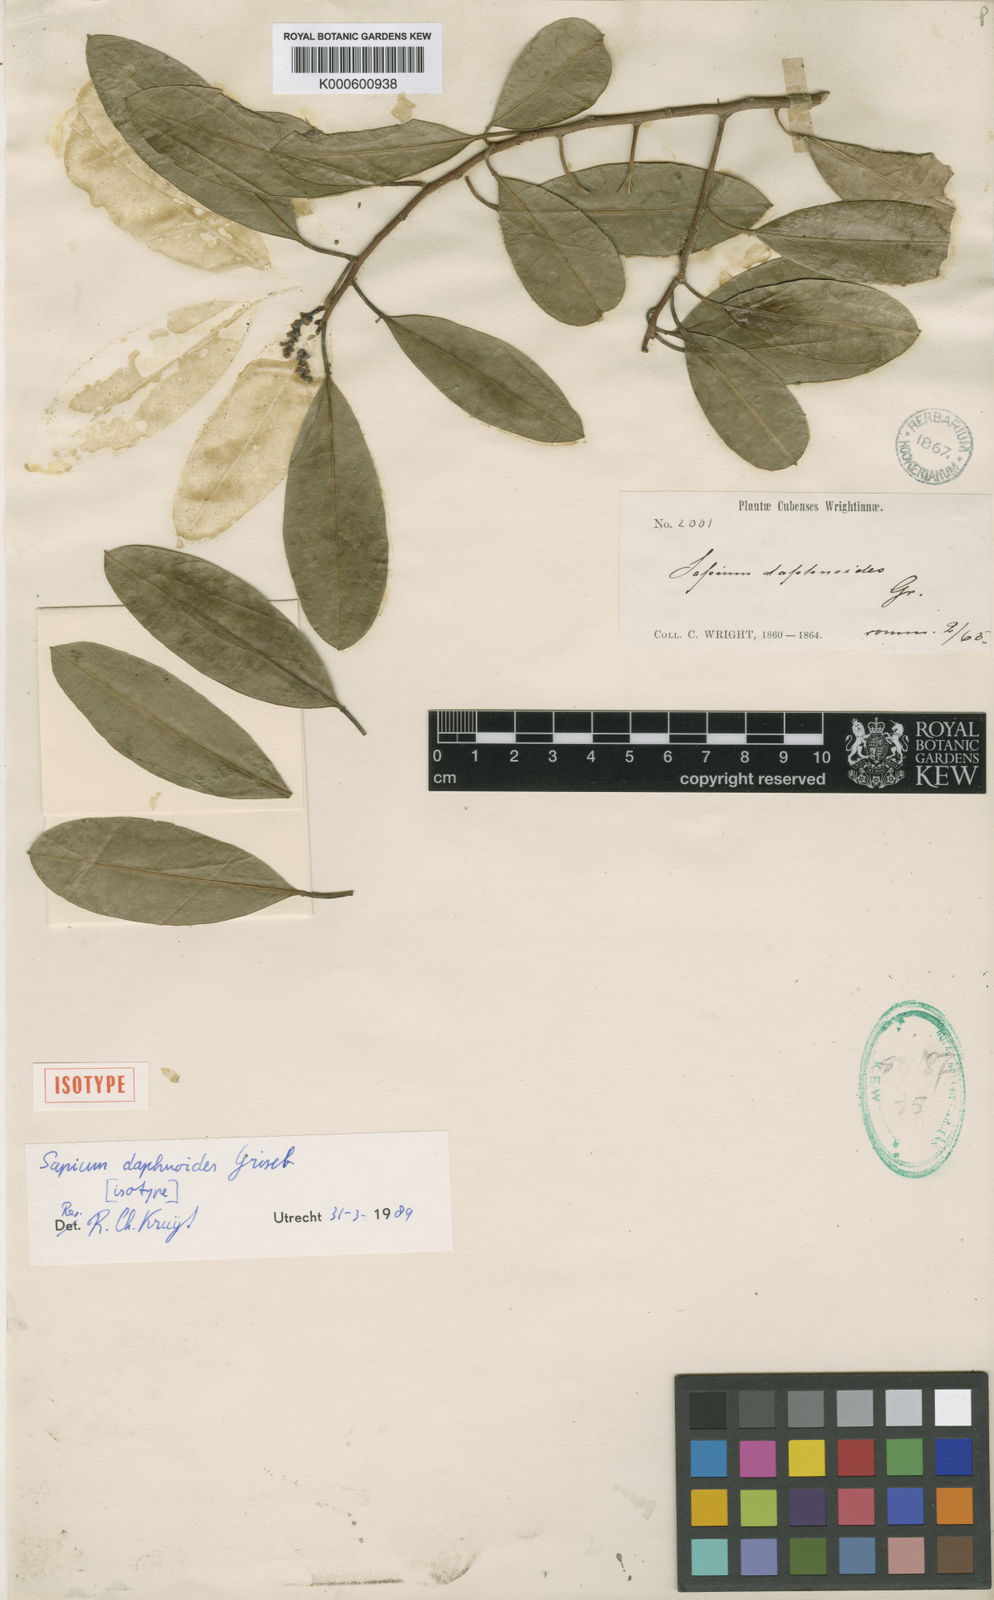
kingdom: Plantae
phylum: Tracheophyta
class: Magnoliopsida
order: Malpighiales
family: Euphorbiaceae
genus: Sapium
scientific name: Sapium daphnoides
